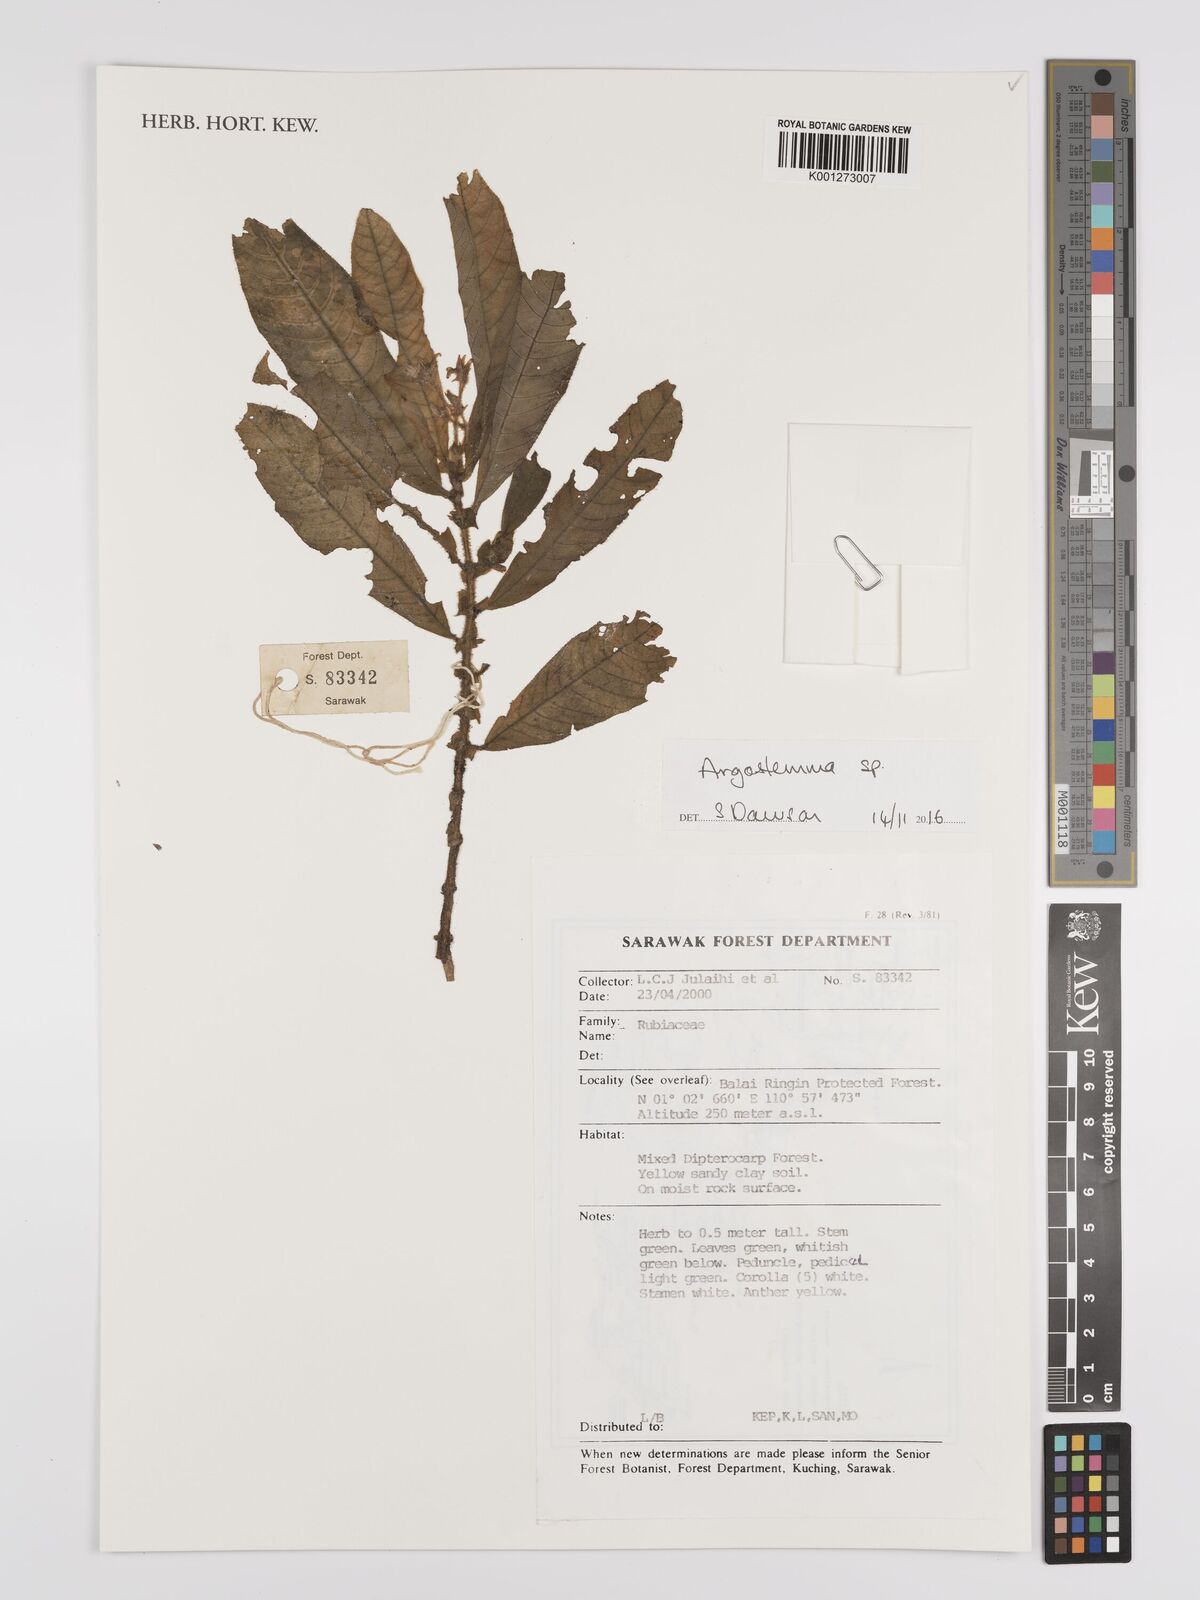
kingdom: Plantae
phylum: Tracheophyta
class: Magnoliopsida
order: Gentianales
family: Rubiaceae
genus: Argostemma
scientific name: Argostemma
